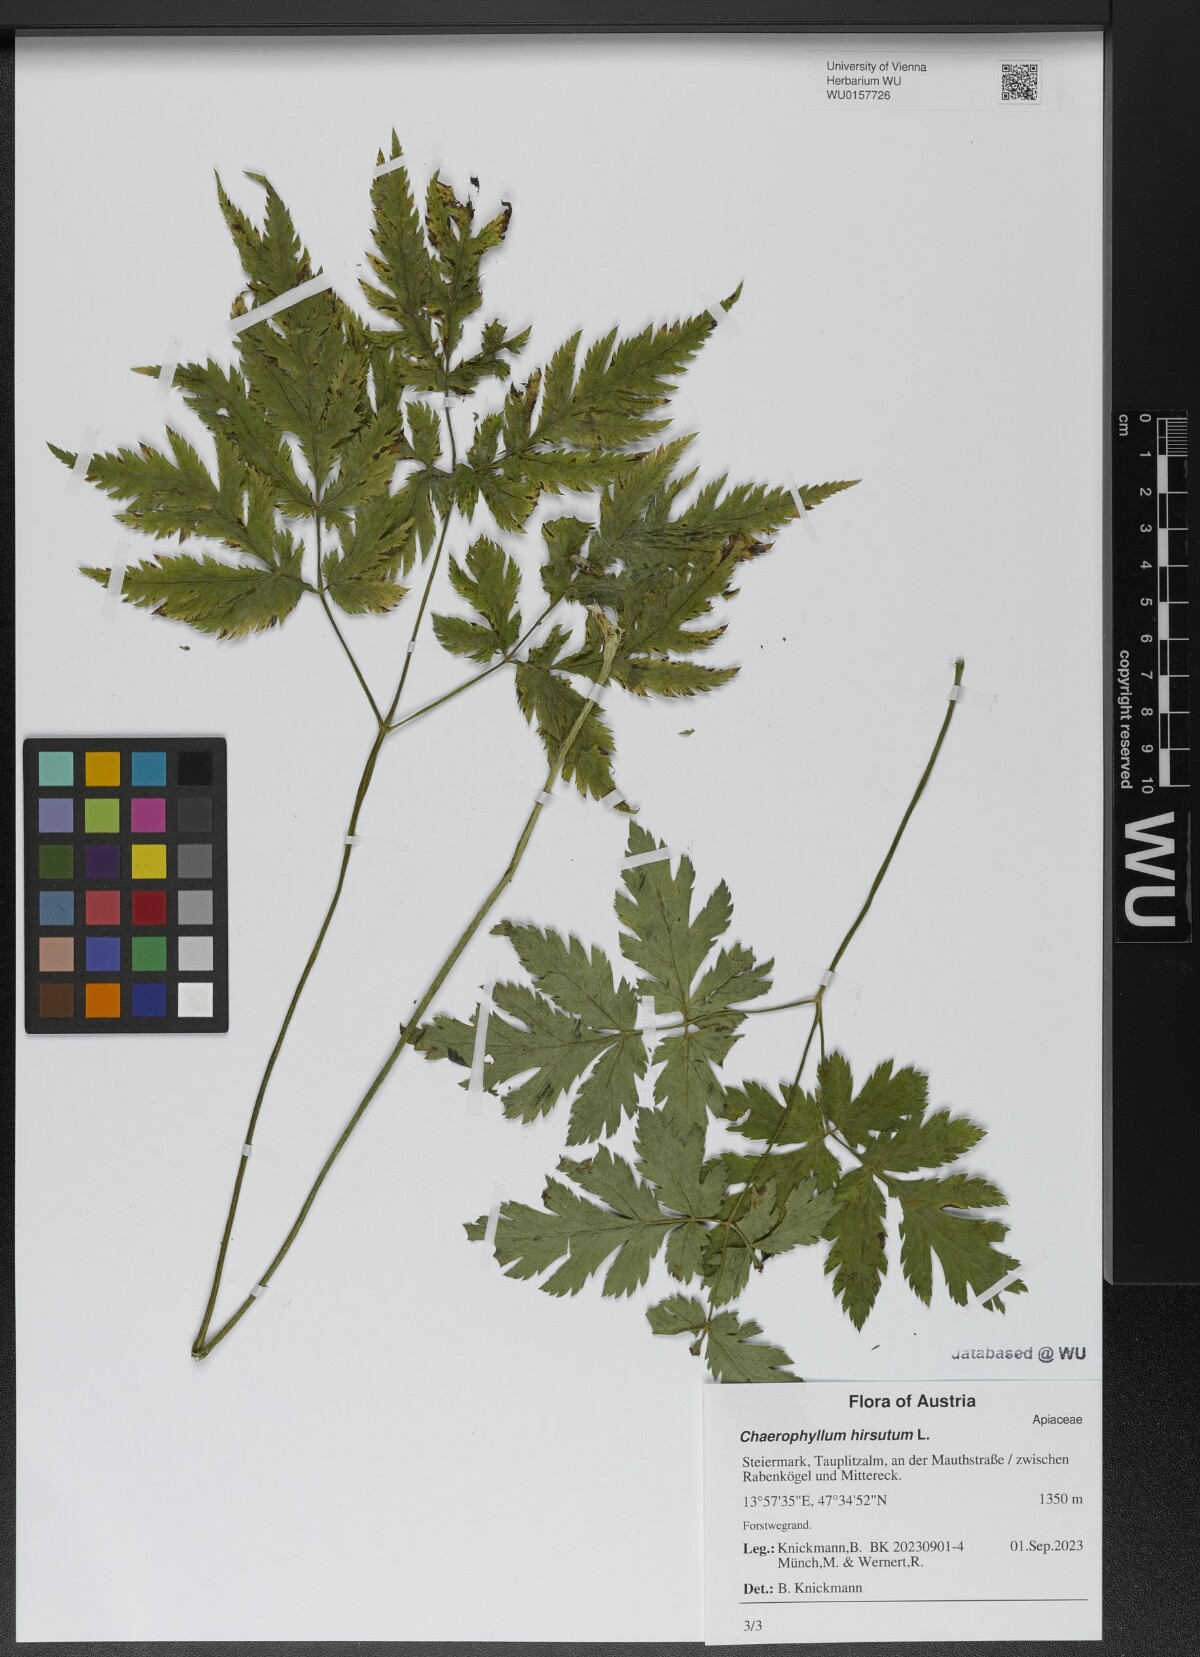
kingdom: Plantae
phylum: Tracheophyta
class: Magnoliopsida
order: Apiales
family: Apiaceae
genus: Chaerophyllum
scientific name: Chaerophyllum hirsutum
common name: Hairy chervil
